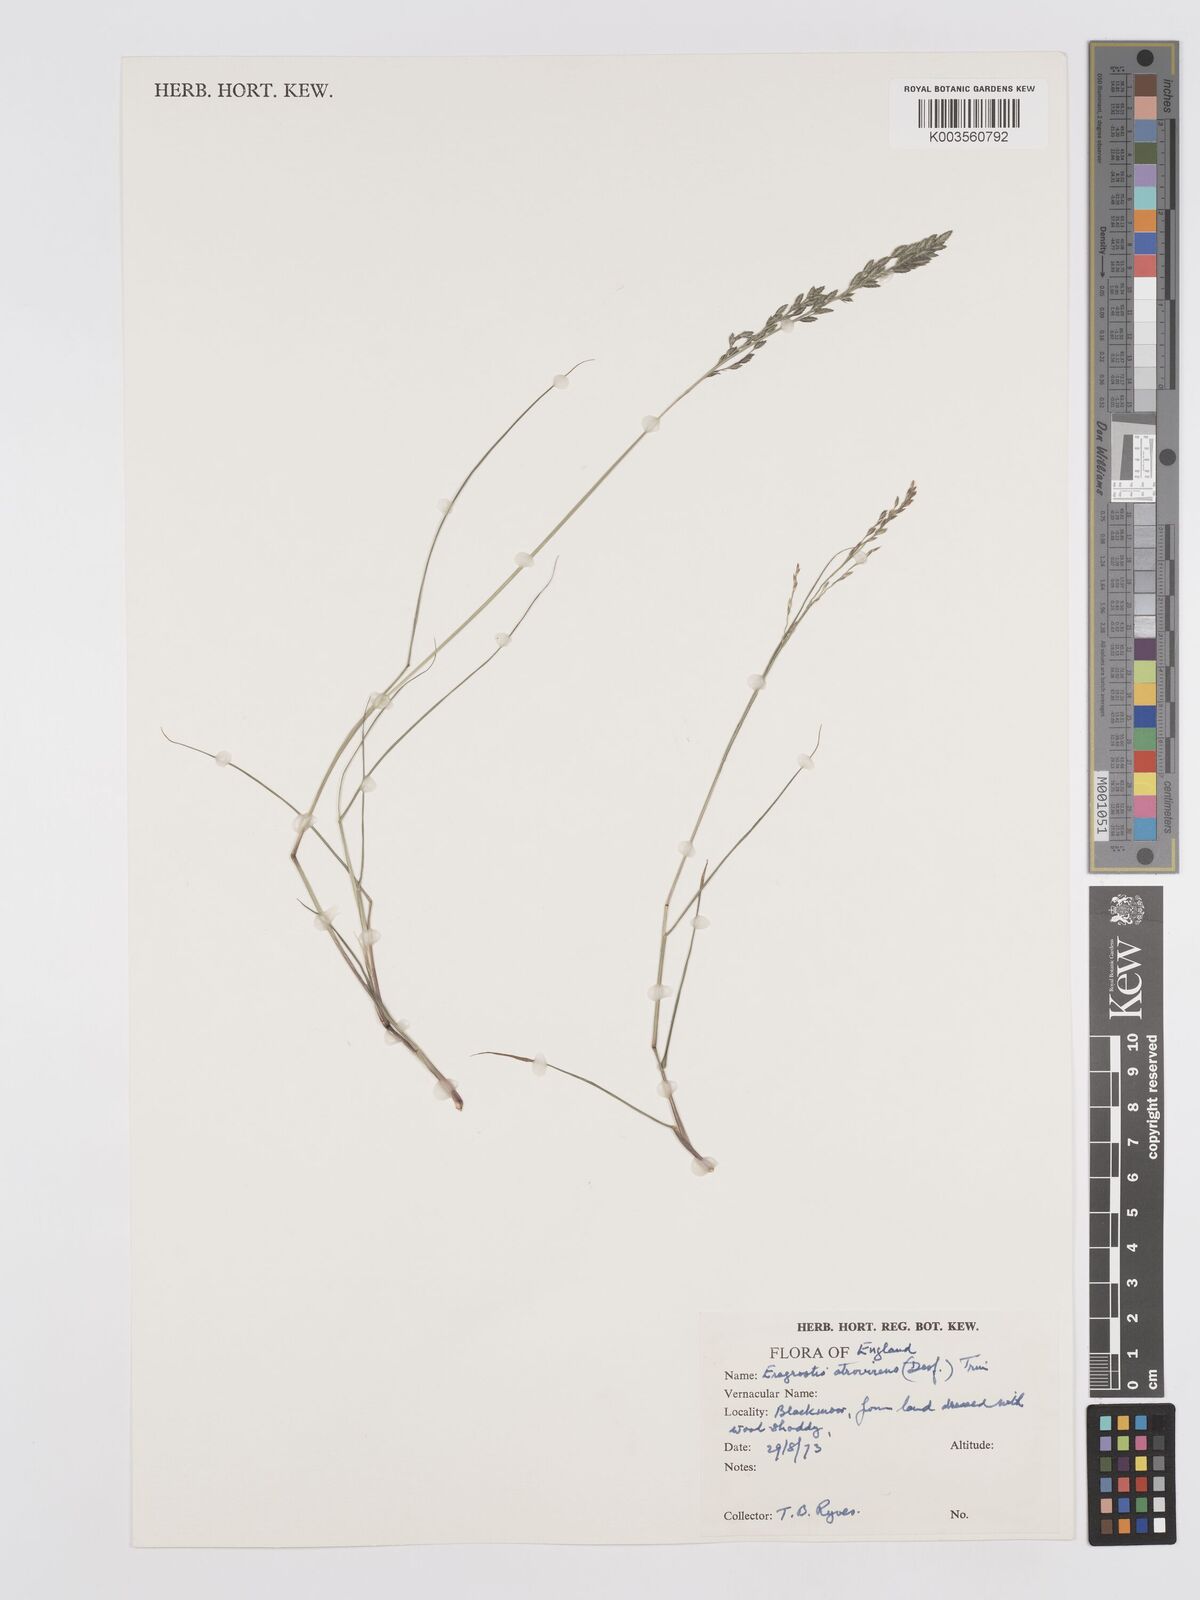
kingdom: Plantae
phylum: Tracheophyta
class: Liliopsida
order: Poales
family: Poaceae
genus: Eragrostis
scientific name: Eragrostis atrovirens
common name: Thalia lovegrass
